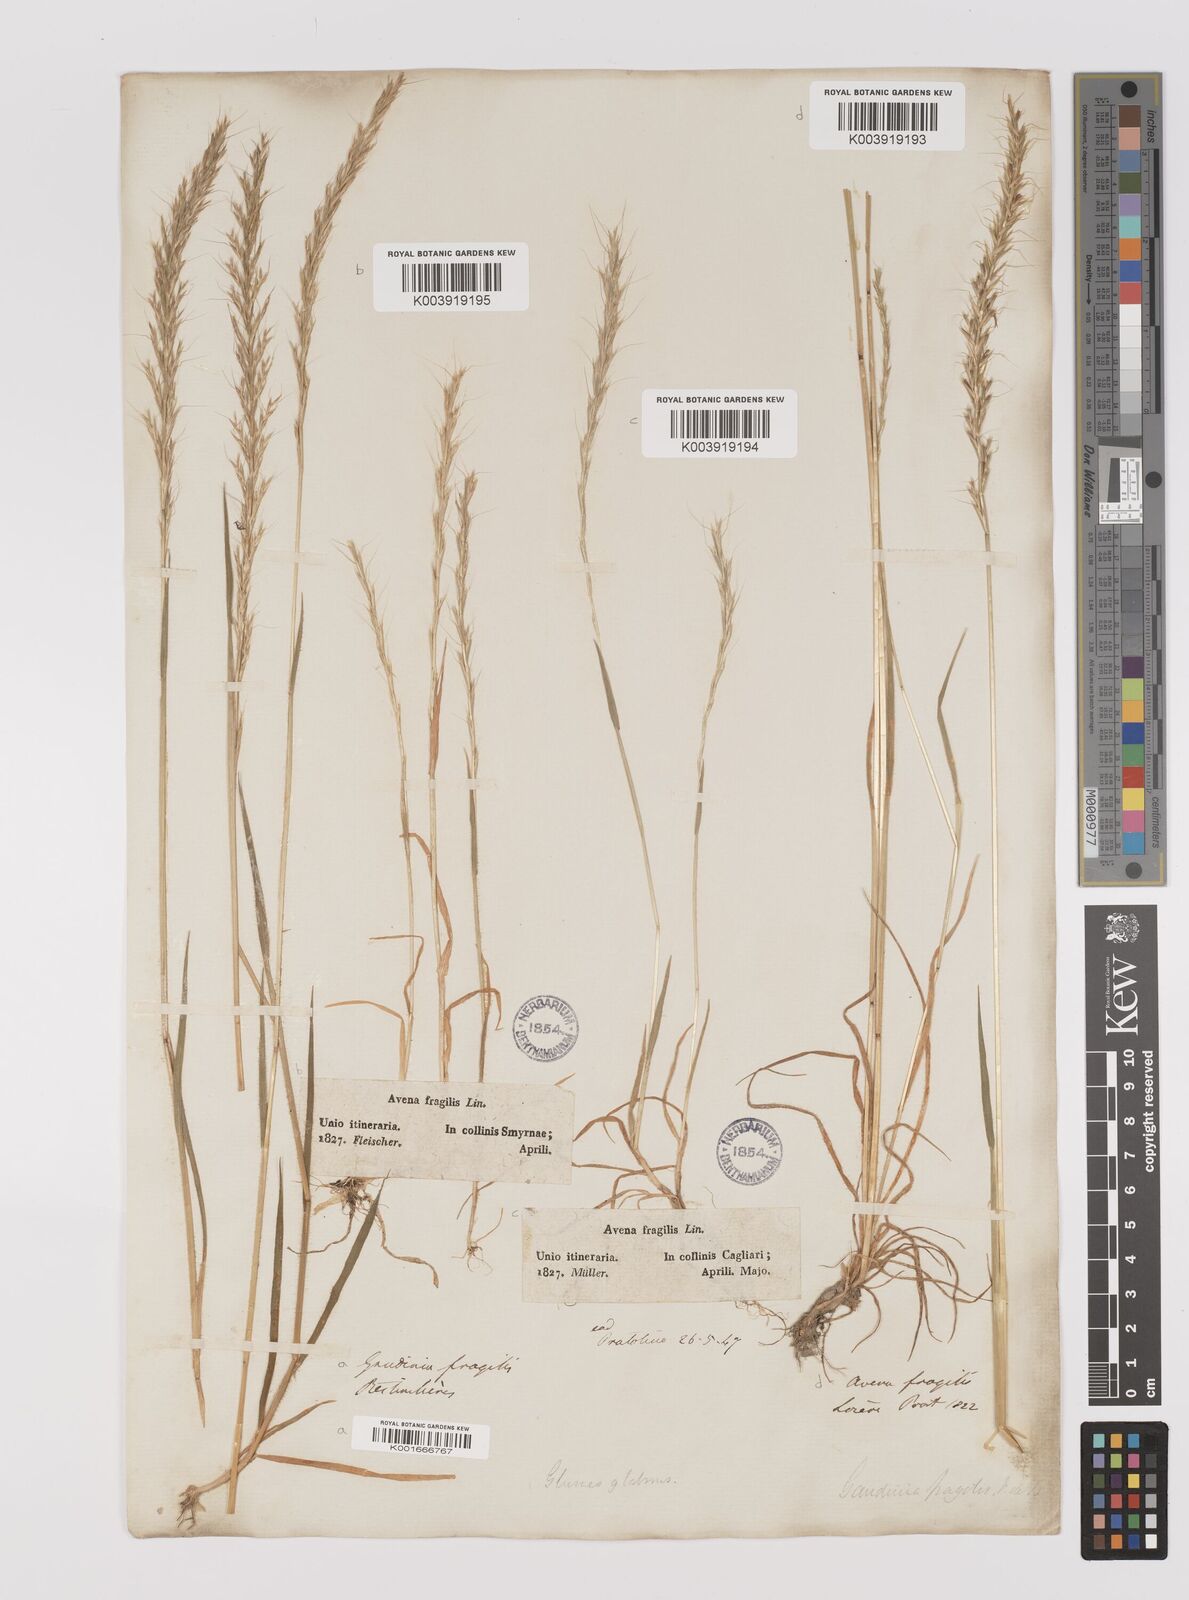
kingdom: Plantae
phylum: Tracheophyta
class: Liliopsida
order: Poales
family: Poaceae
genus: Gaudinia
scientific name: Gaudinia fragilis
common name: French oat-grass
